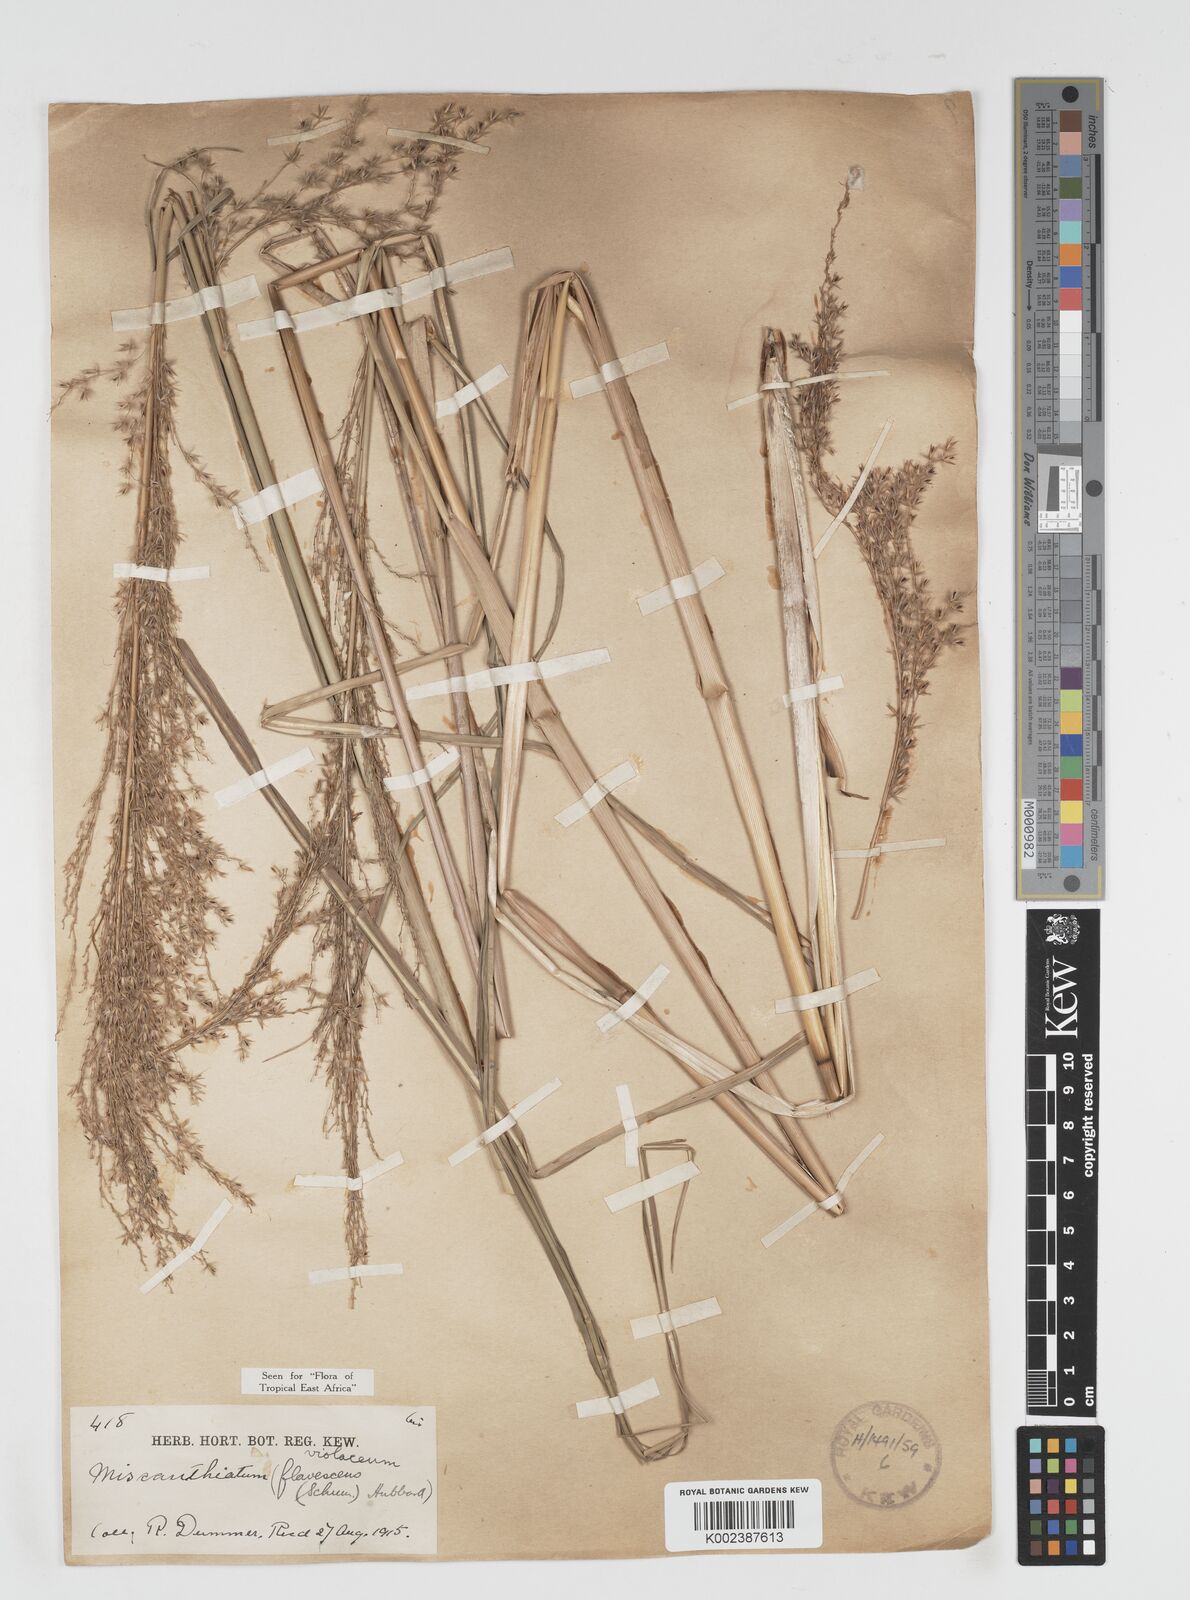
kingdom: Plantae
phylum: Tracheophyta
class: Liliopsida
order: Poales
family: Poaceae
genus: Miscanthidium
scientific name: Miscanthidium violaceum
